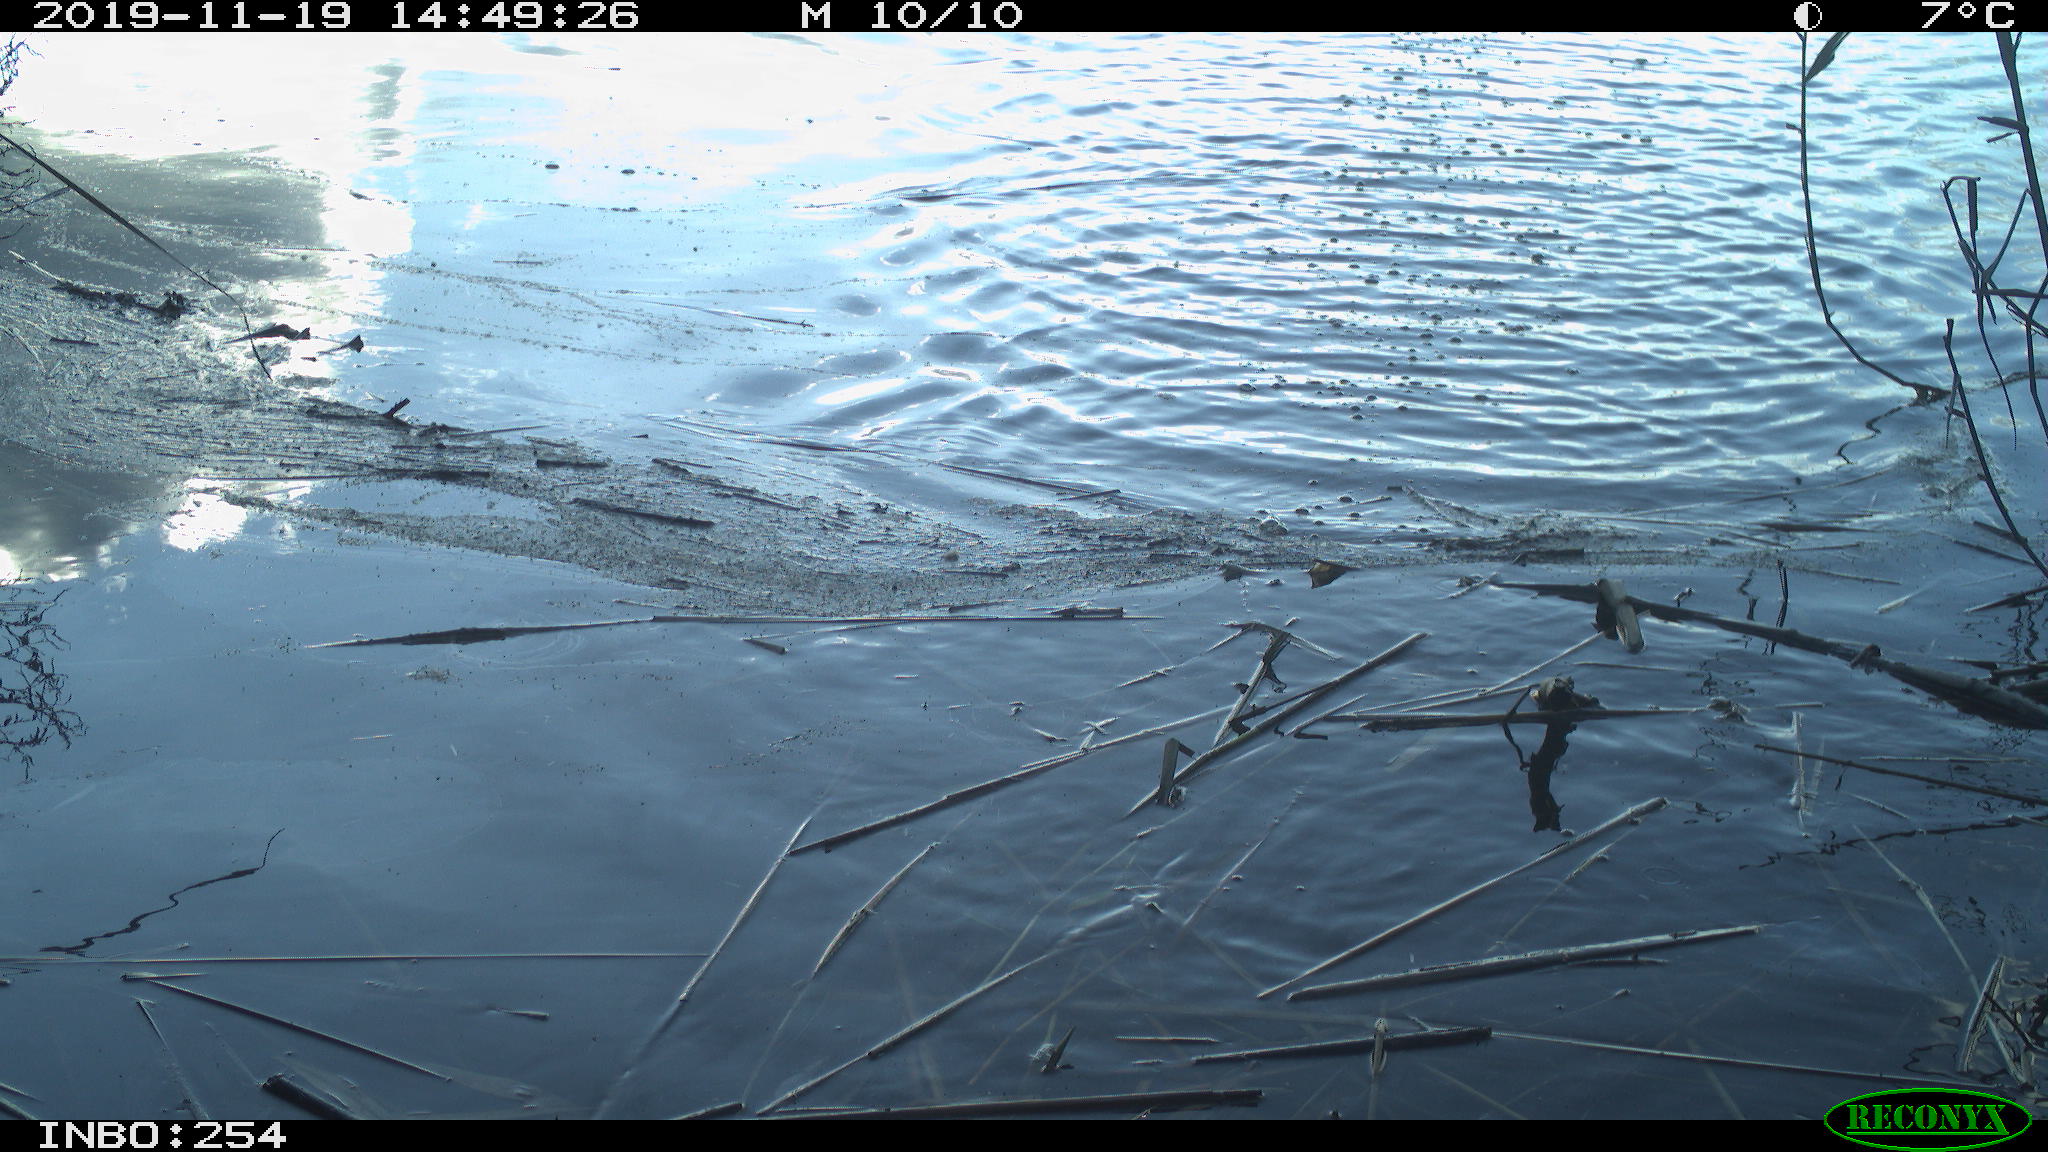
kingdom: Animalia
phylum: Chordata
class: Aves
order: Gruiformes
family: Rallidae
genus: Gallinula
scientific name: Gallinula chloropus
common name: Common moorhen
